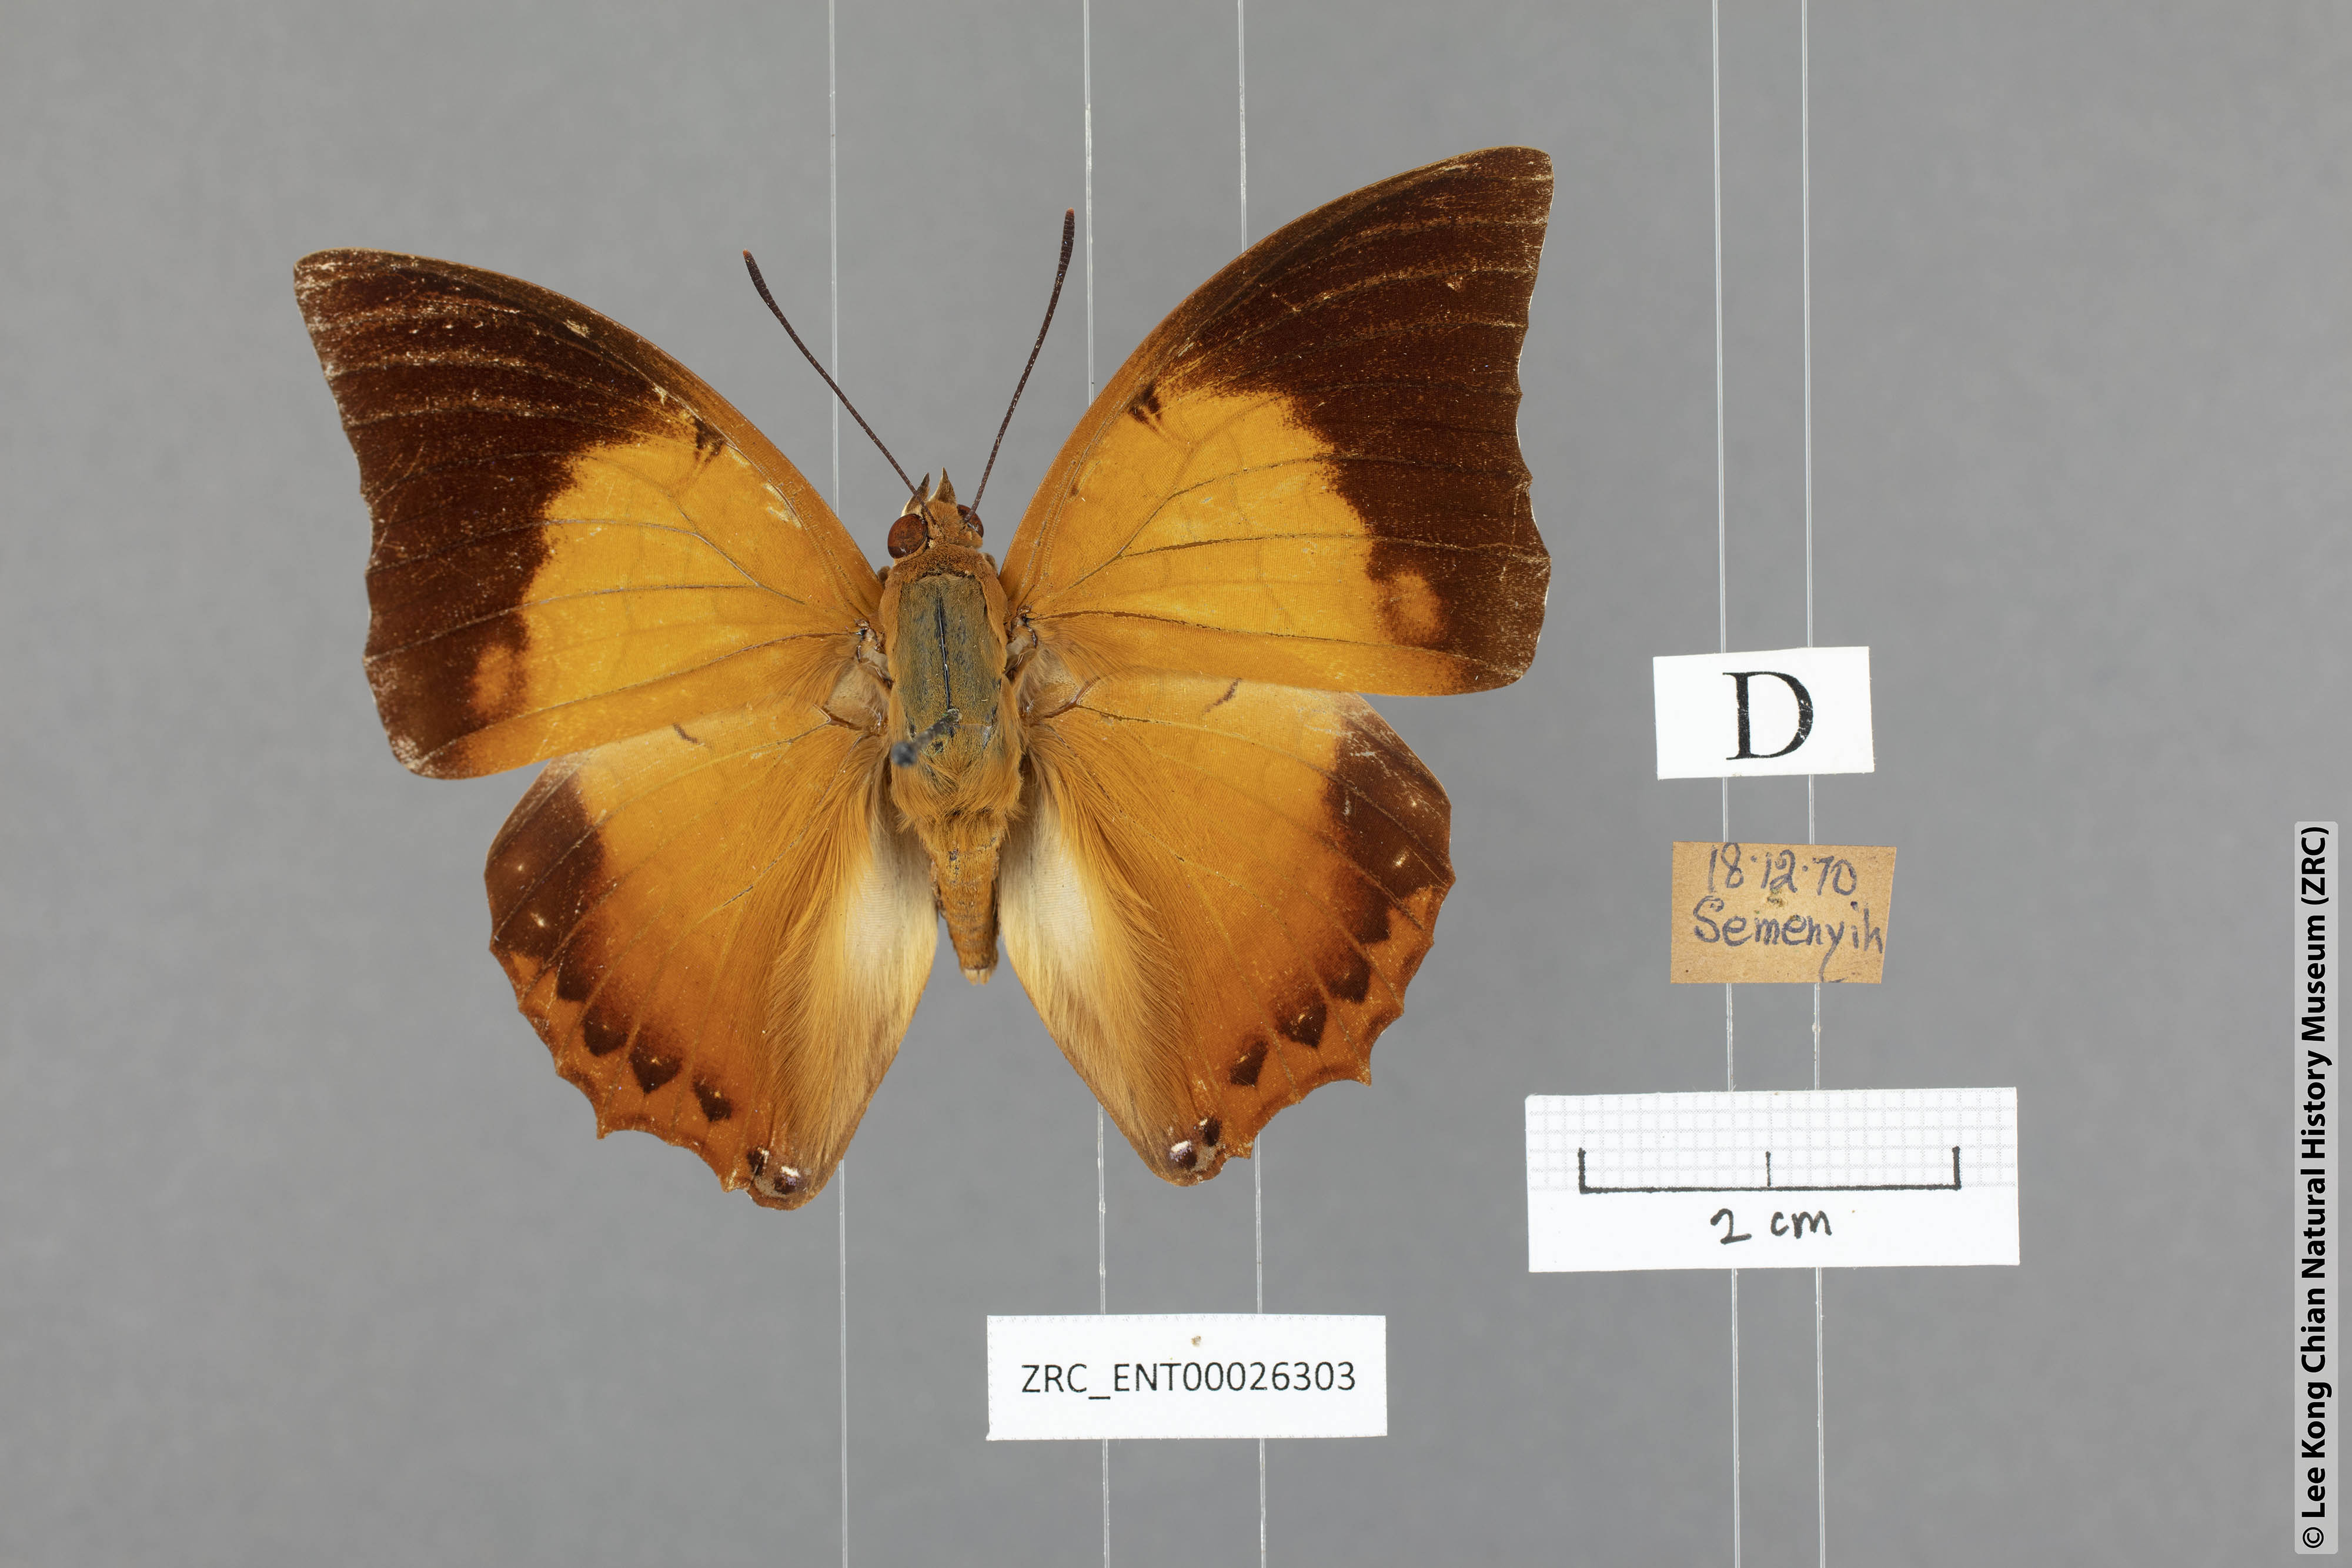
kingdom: Animalia
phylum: Arthropoda
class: Insecta
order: Lepidoptera
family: Nymphalidae
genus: Charaxes
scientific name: Charaxes bernardus
